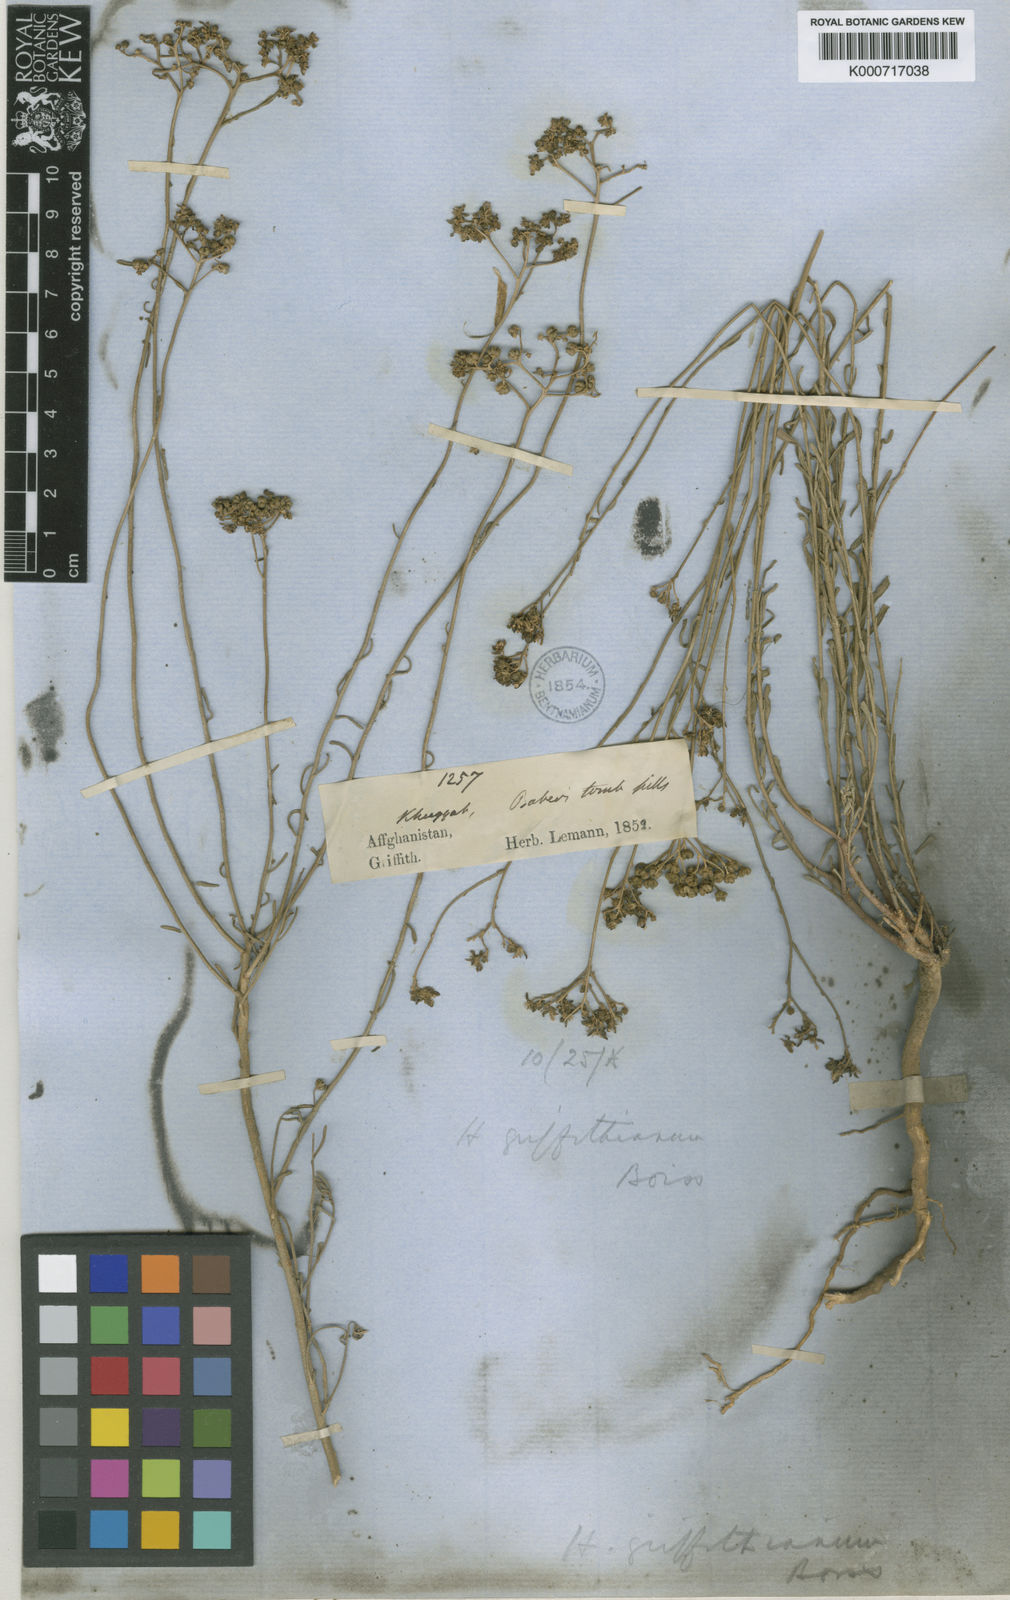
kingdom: Plantae
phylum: Tracheophyta
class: Magnoliopsida
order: Sapindales
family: Rutaceae
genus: Haplophyllum
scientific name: Haplophyllum griffithianum
